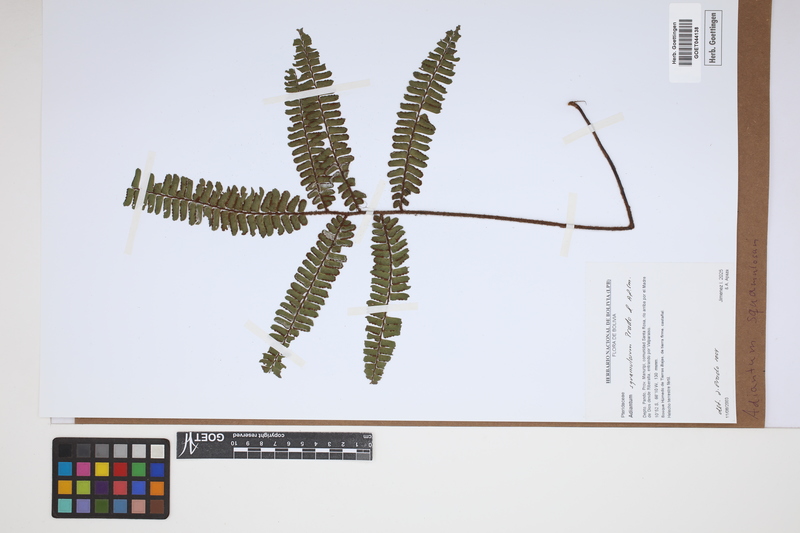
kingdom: Plantae
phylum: Tracheophyta
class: Polypodiopsida
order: Polypodiales
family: Pteridaceae
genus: Adiantum
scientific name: Adiantum squamulosum
